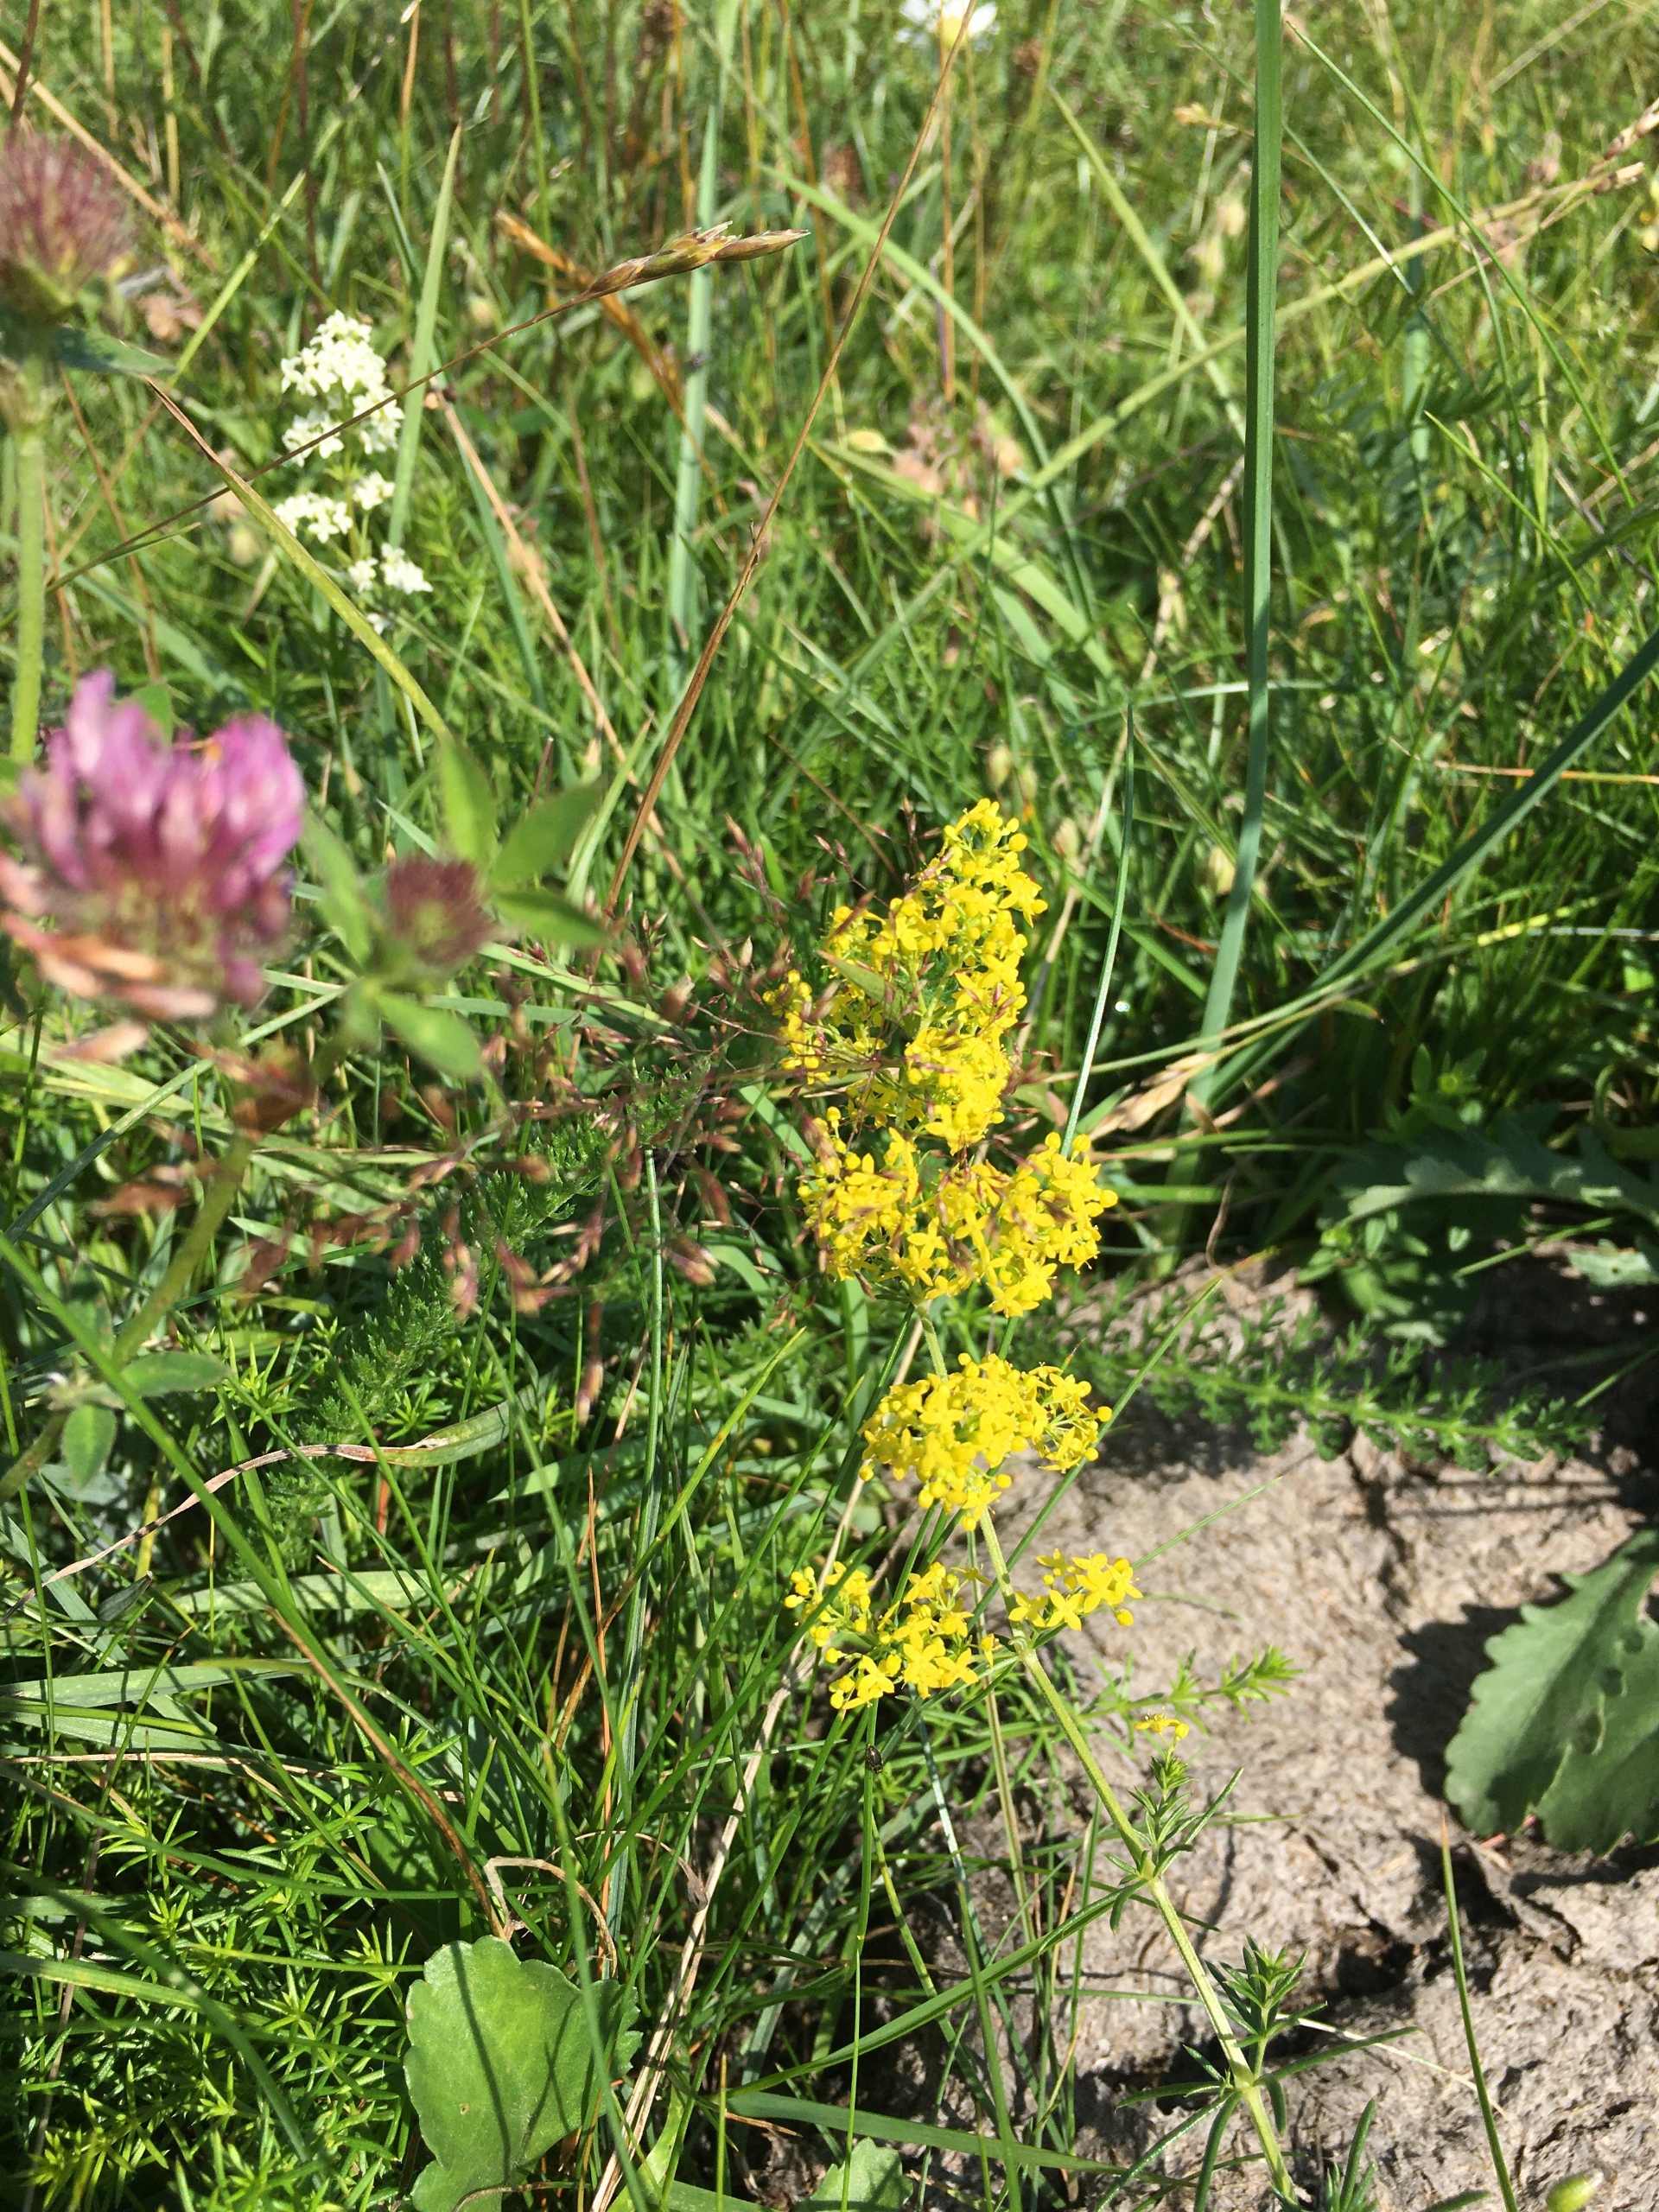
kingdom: Plantae
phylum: Tracheophyta
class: Magnoliopsida
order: Gentianales
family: Rubiaceae
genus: Galium
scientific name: Galium verum
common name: Gul snerre
